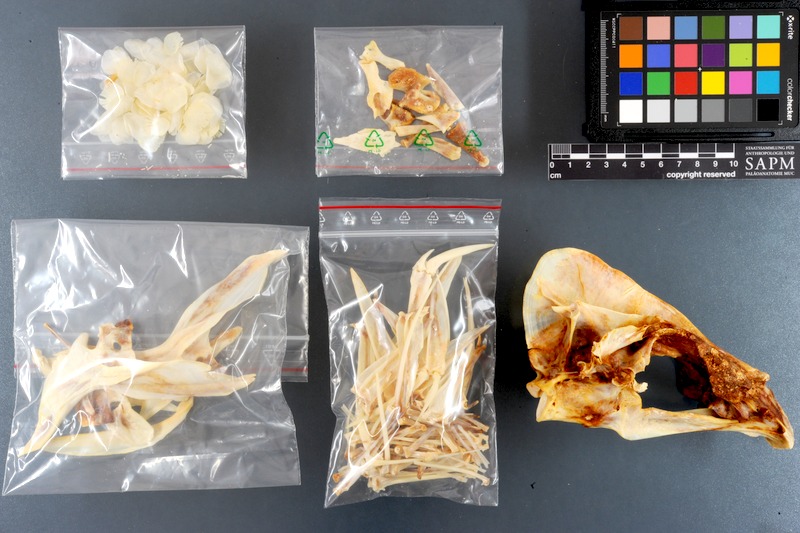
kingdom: Animalia
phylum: Chordata
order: Perciformes
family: Sparidae
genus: Oblada
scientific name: Oblada melanura
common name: Saddled seabream
